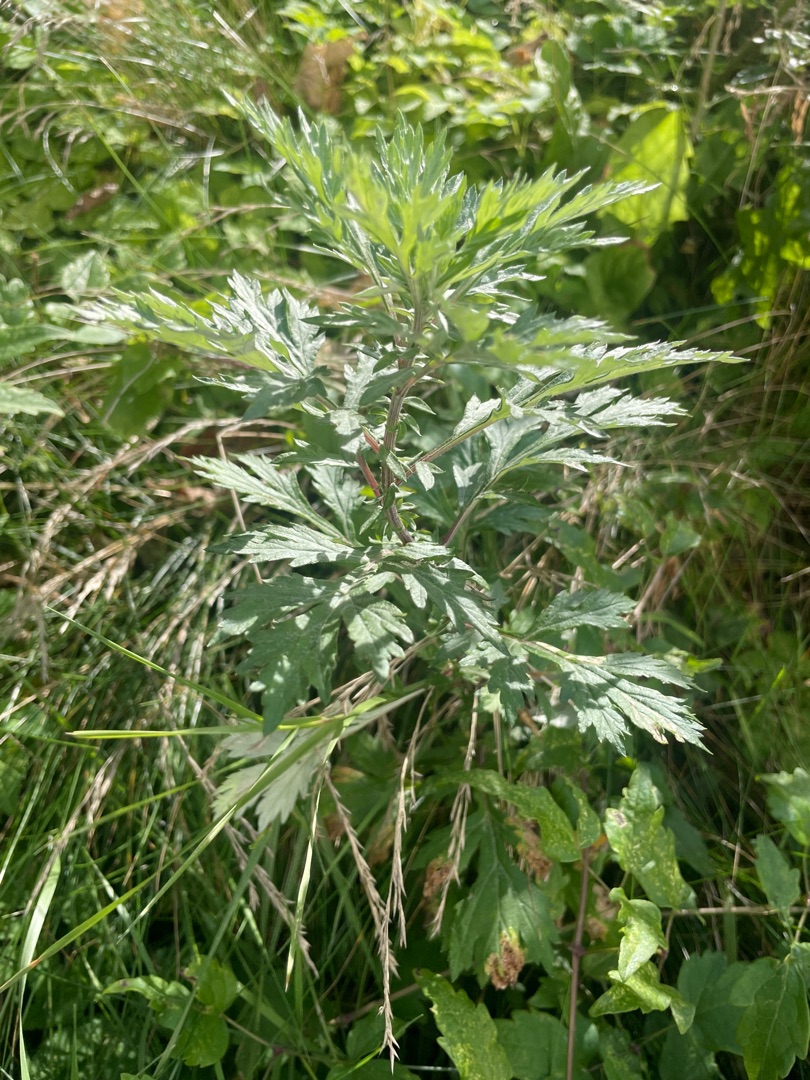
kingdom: Plantae
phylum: Tracheophyta
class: Magnoliopsida
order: Asterales
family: Asteraceae
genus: Artemisia
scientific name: Artemisia vulgaris
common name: Grå-bynke
